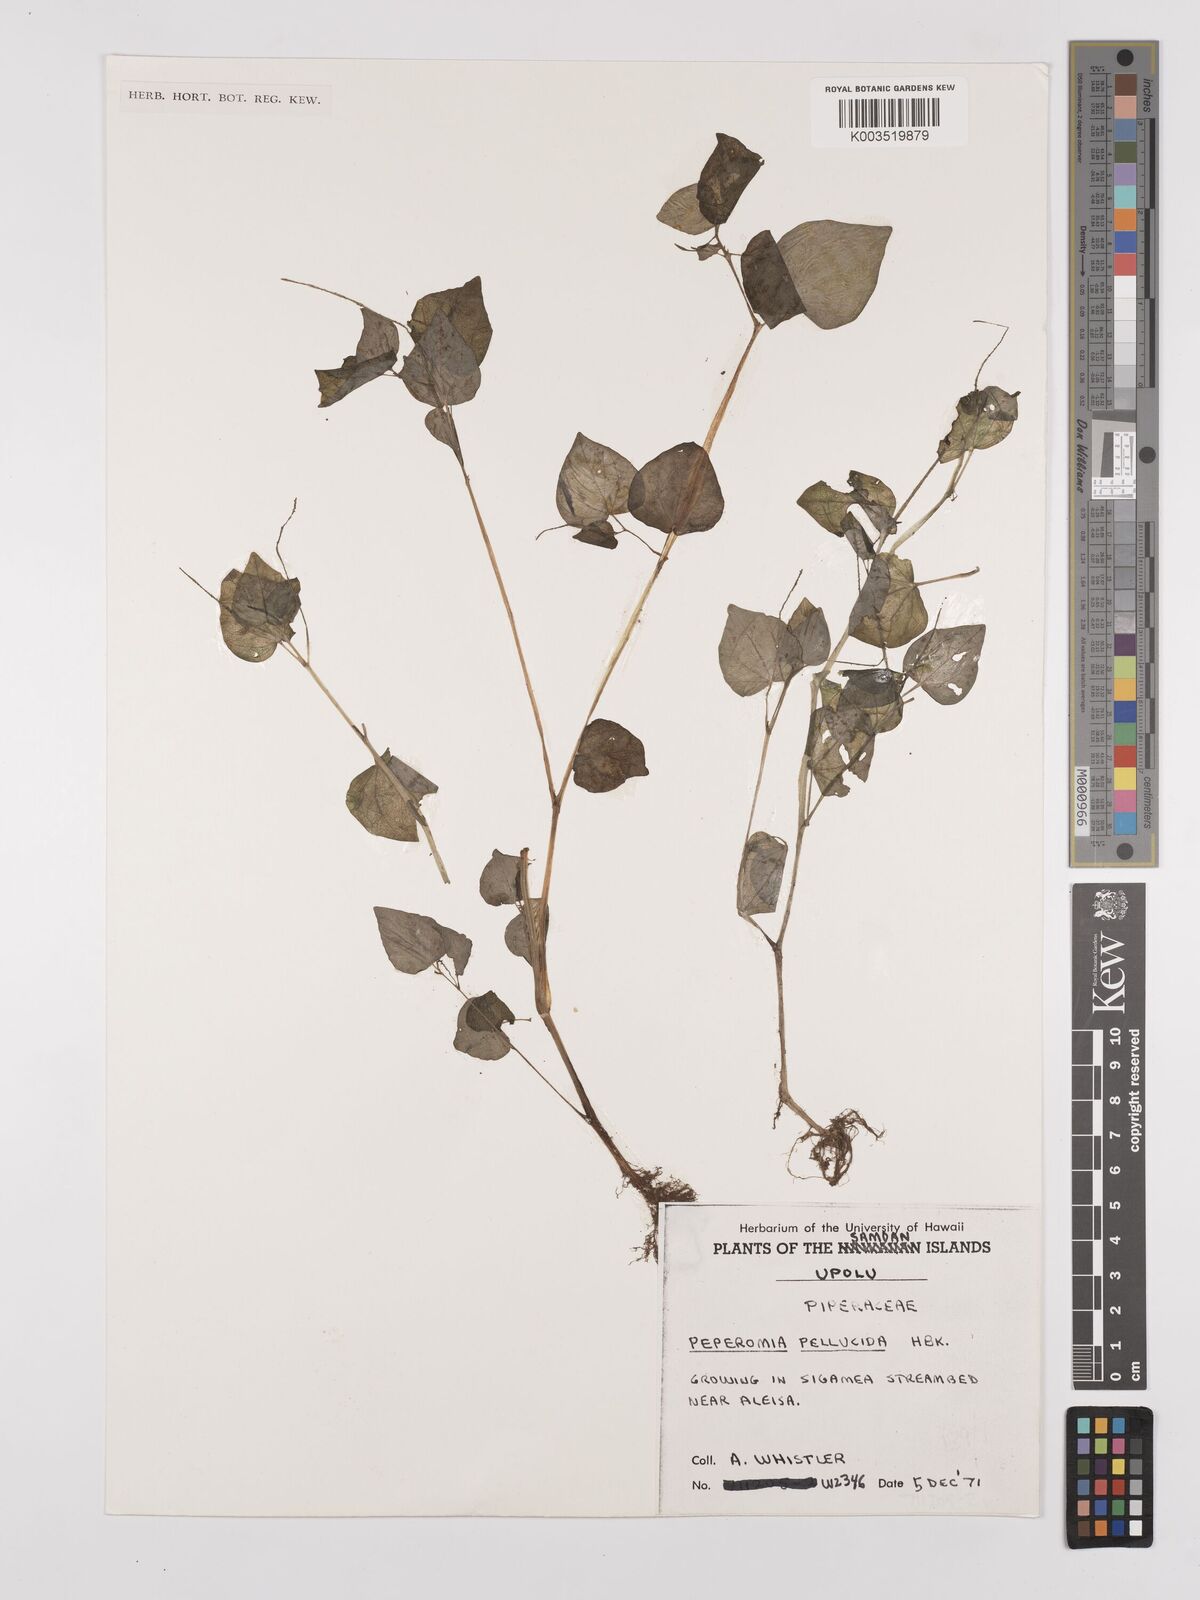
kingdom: Plantae
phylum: Tracheophyta
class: Magnoliopsida
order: Piperales
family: Piperaceae
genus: Peperomia
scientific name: Peperomia pellucida
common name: Man to man
